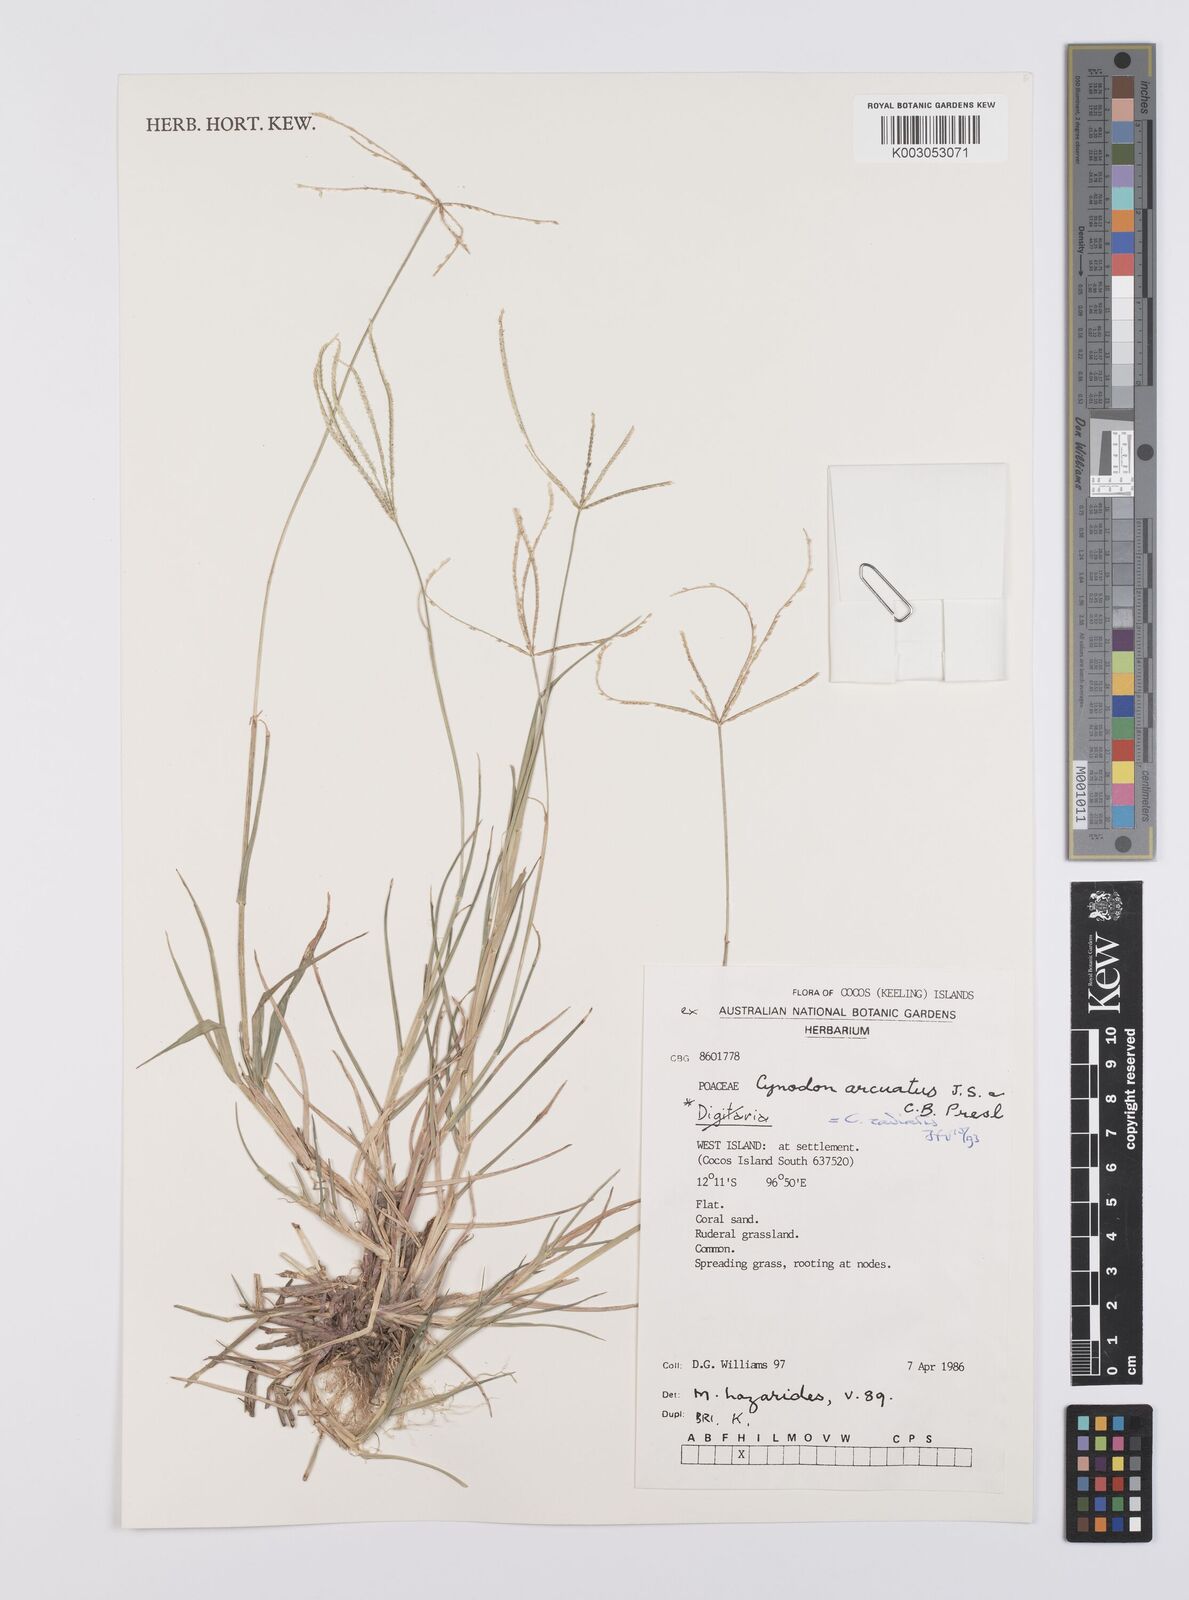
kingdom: Plantae
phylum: Tracheophyta
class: Liliopsida
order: Poales
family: Poaceae
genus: Cynodon
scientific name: Cynodon radiatus
